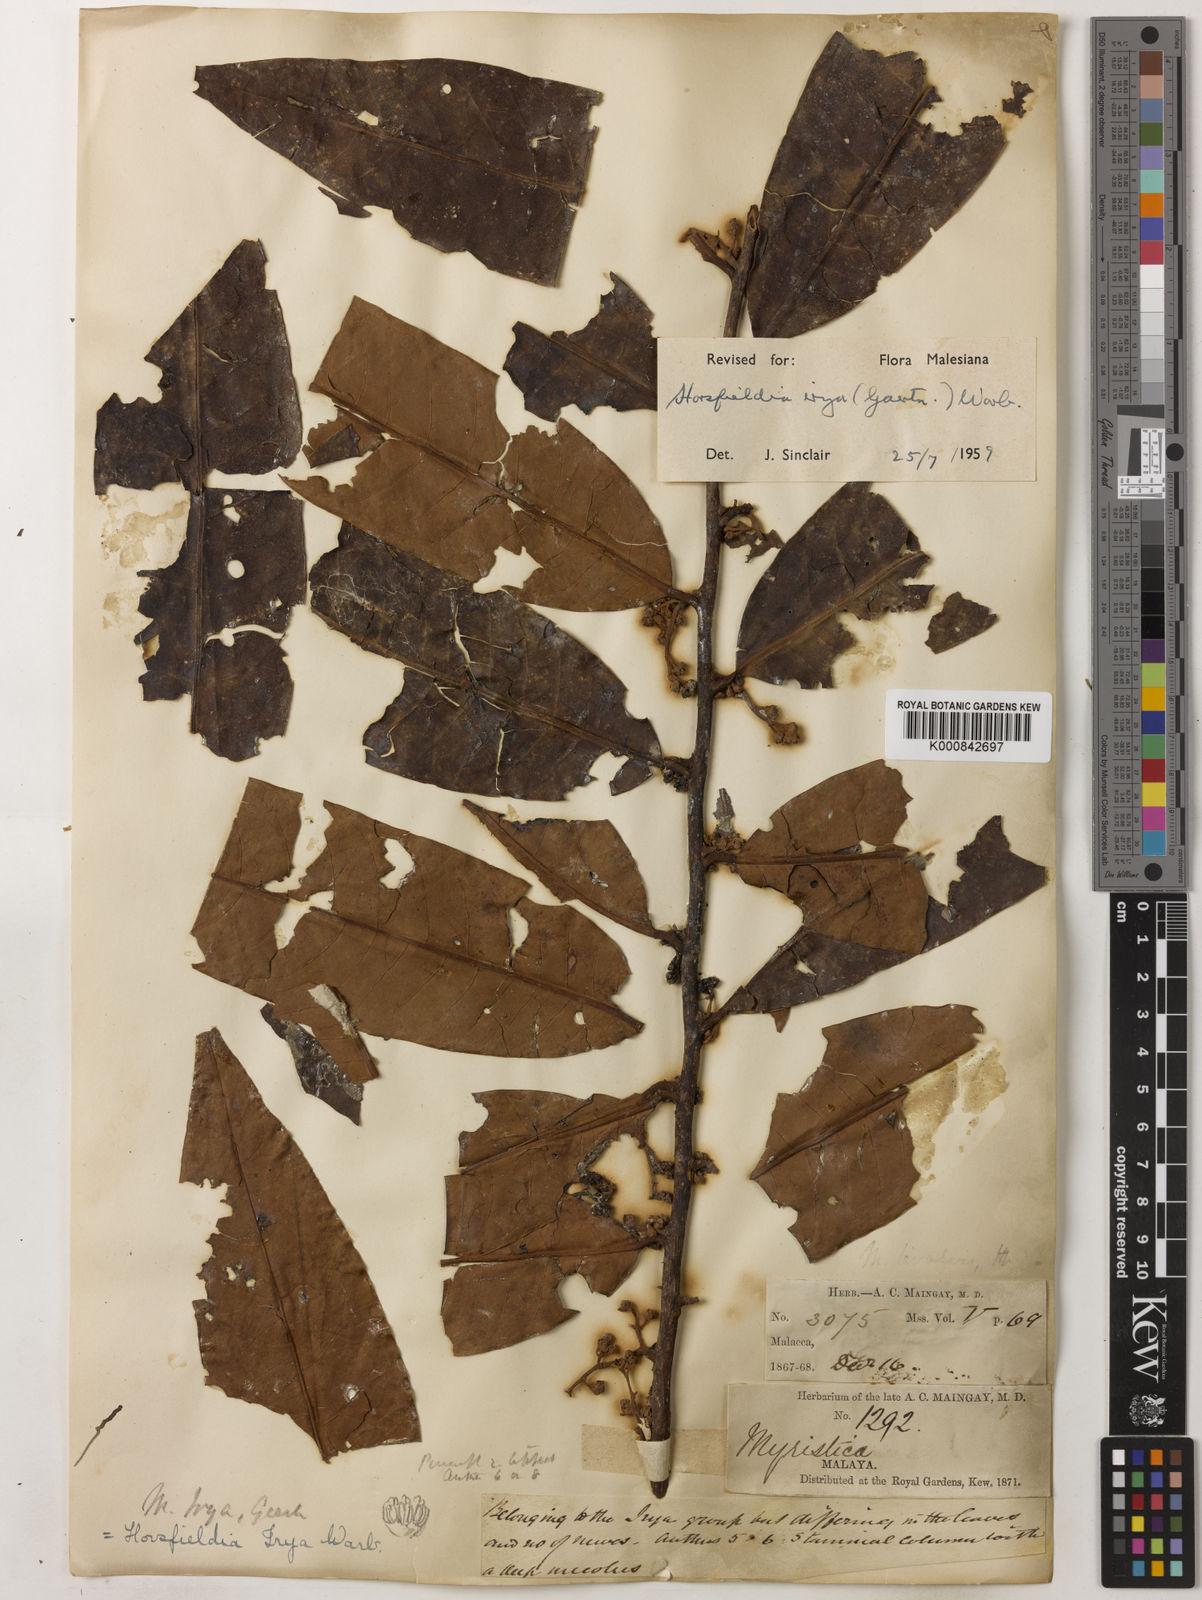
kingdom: Plantae
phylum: Tracheophyta
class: Magnoliopsida
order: Magnoliales
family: Myristicaceae
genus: Horsfieldia
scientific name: Horsfieldia irya
